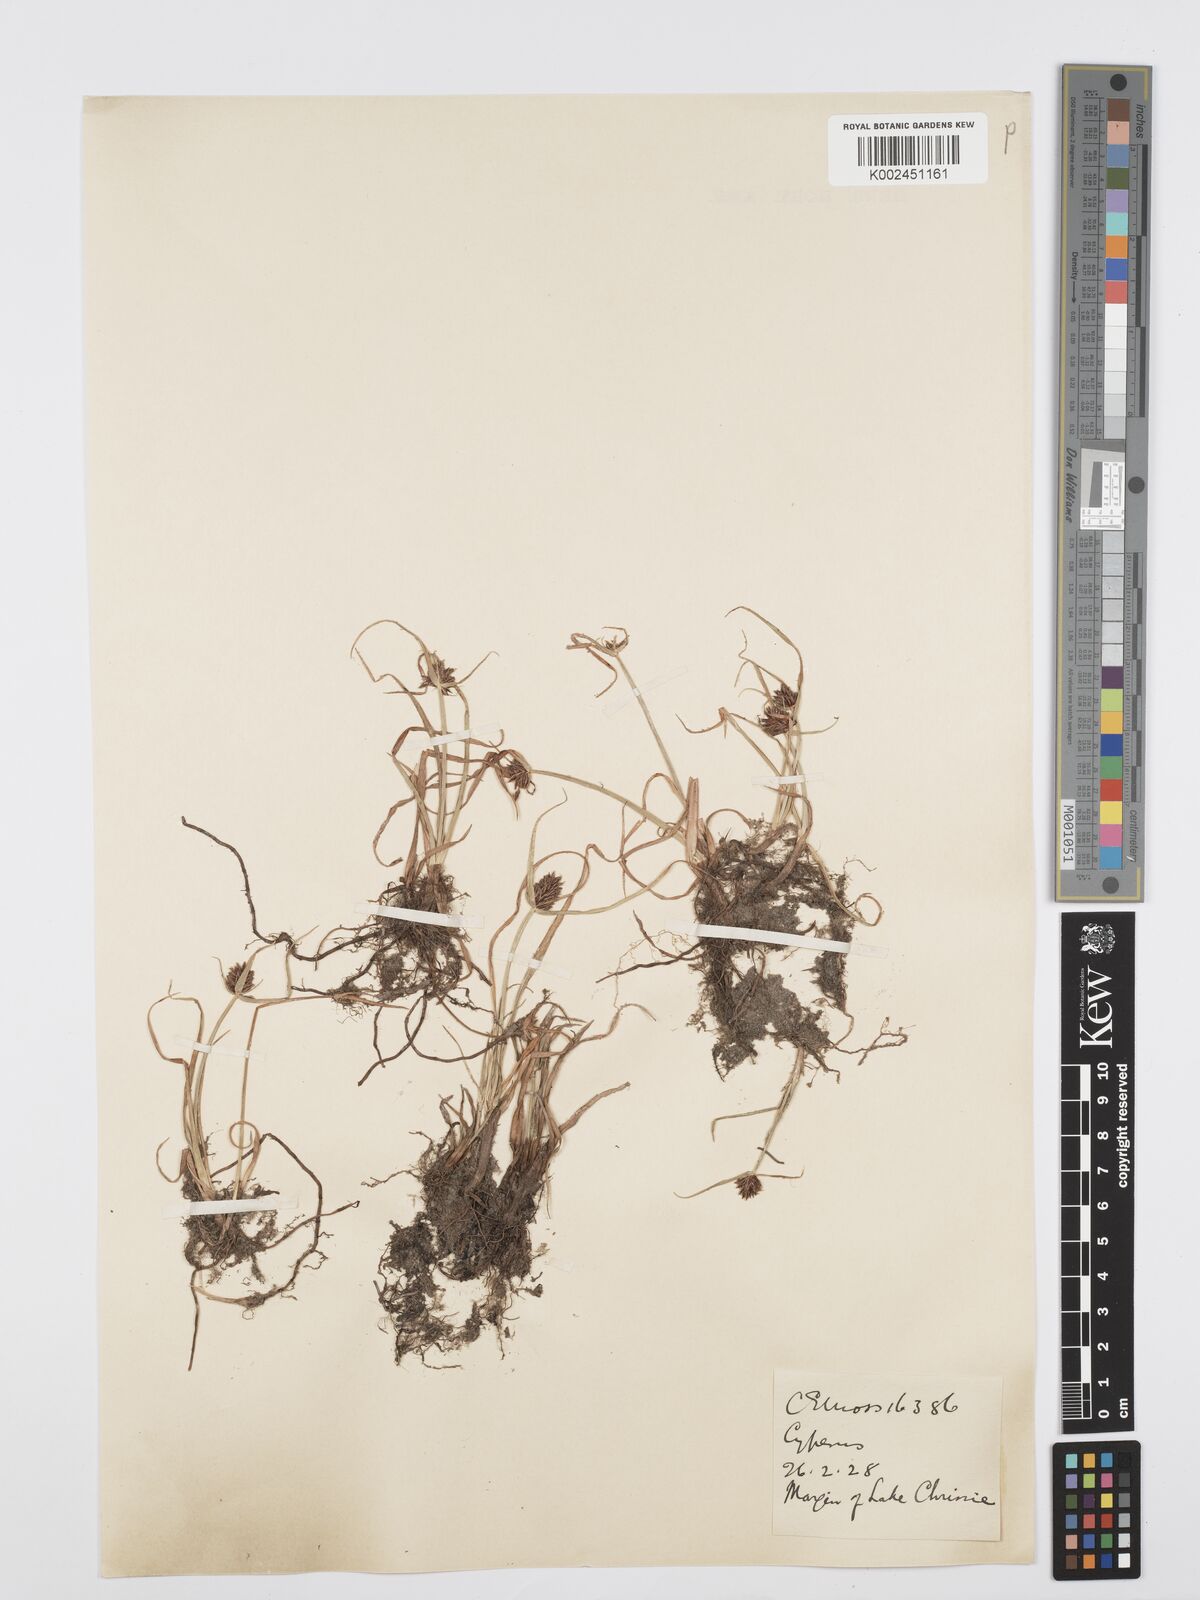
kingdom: Plantae
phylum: Tracheophyta
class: Liliopsida
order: Poales
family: Cyperaceae
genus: Cyperus
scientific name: Cyperus
